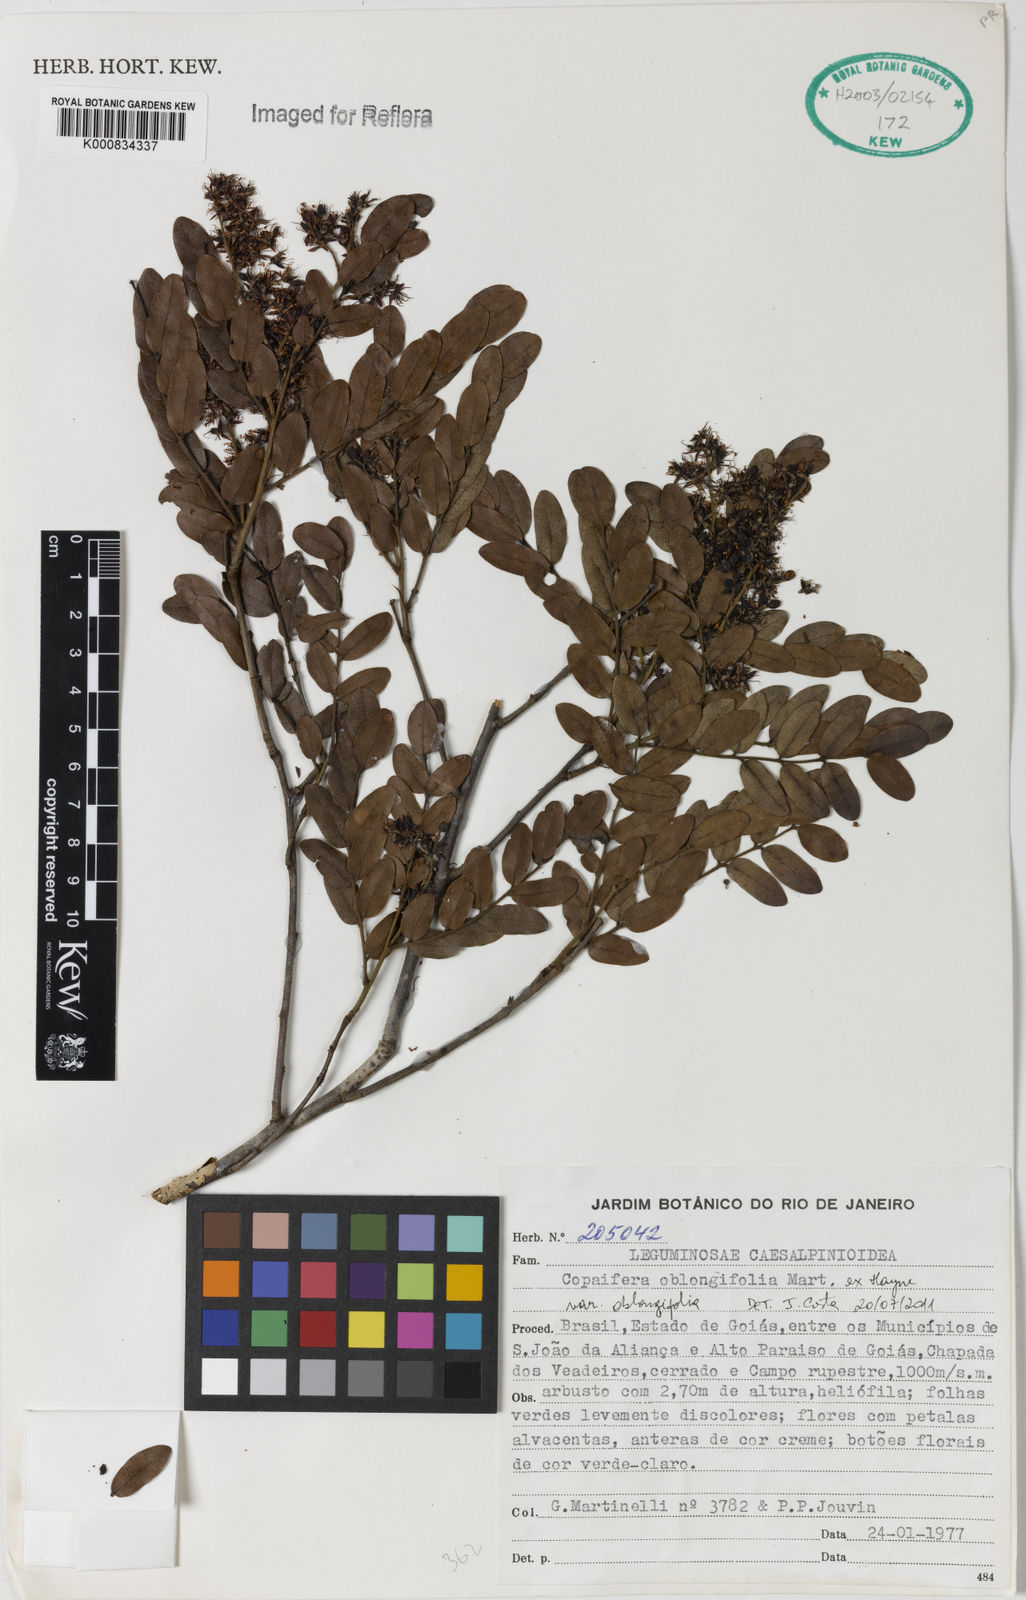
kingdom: Plantae
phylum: Tracheophyta
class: Magnoliopsida
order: Fabales
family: Fabaceae
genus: Copaifera
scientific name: Copaifera oblongifolia
